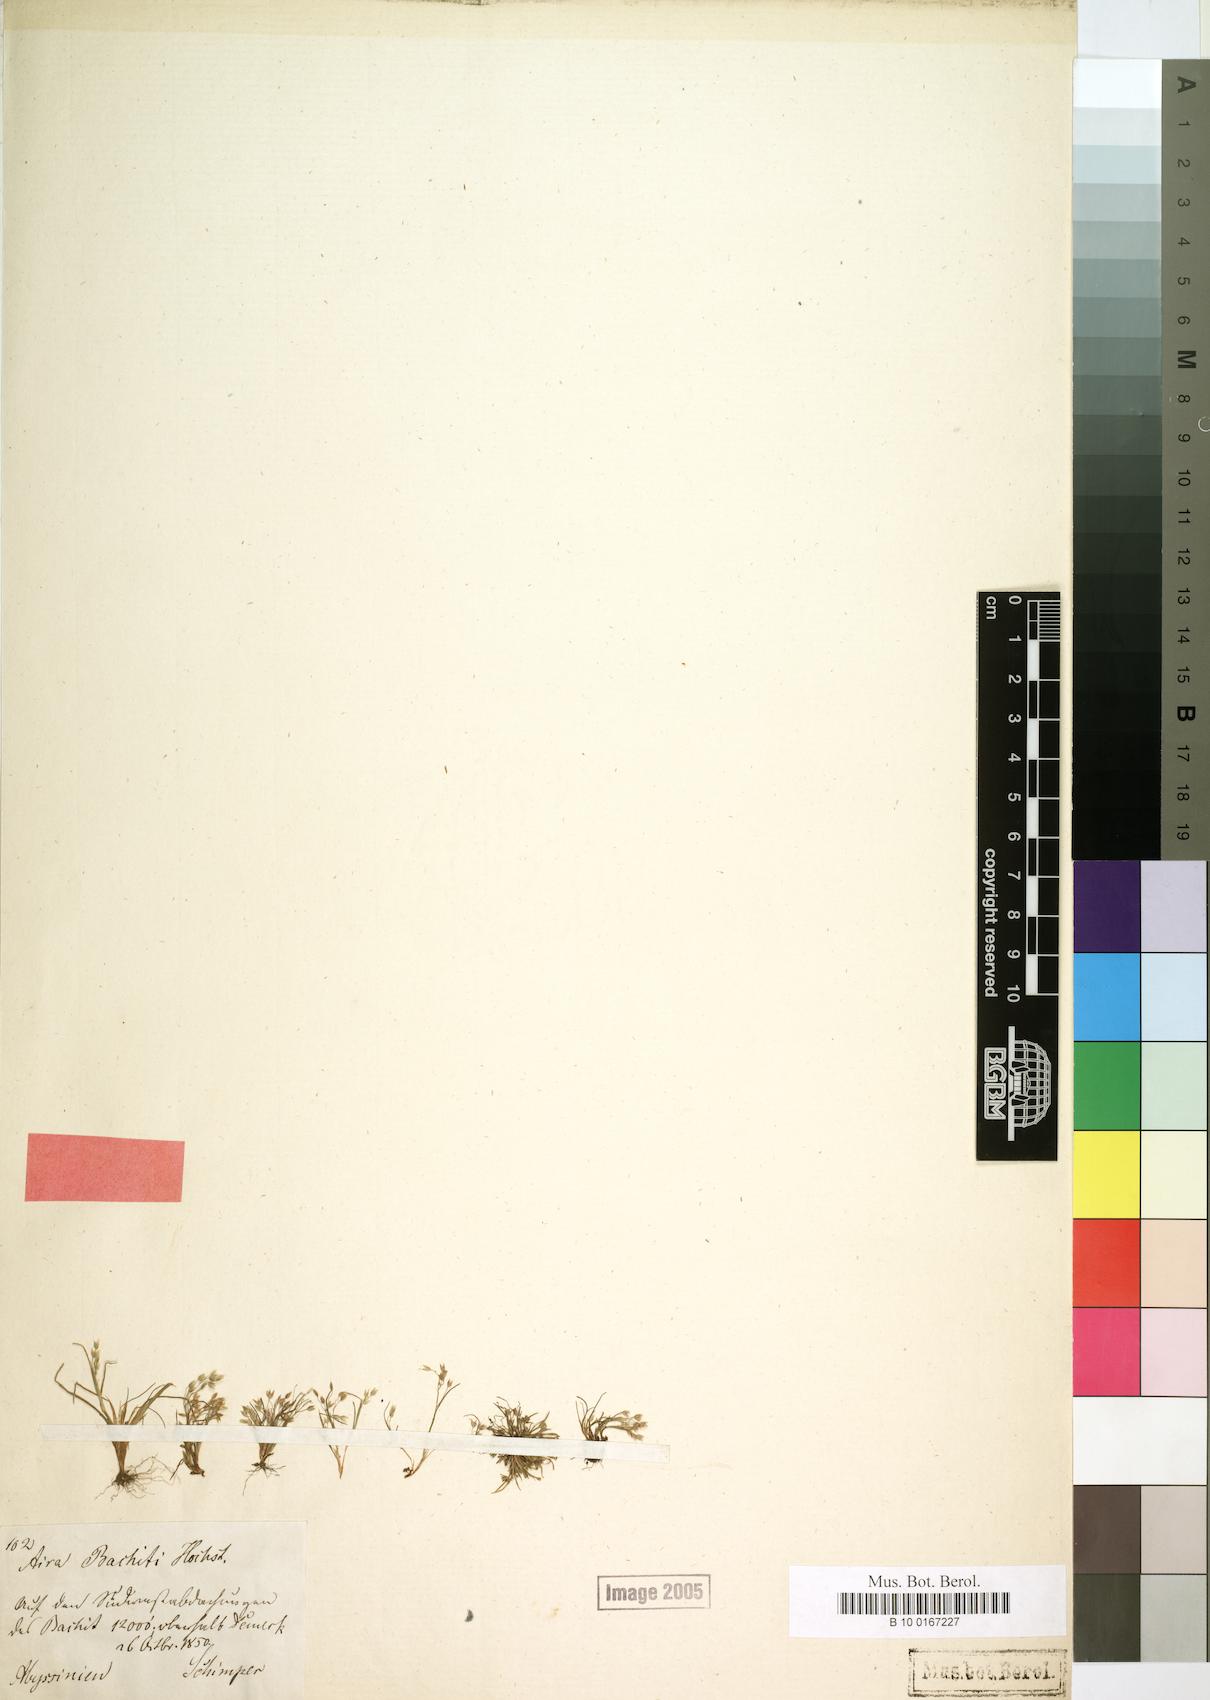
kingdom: Plantae
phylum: Tracheophyta
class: Liliopsida
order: Poales
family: Poaceae
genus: Aira
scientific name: Aira caryophyllea
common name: Silver hairgrass
